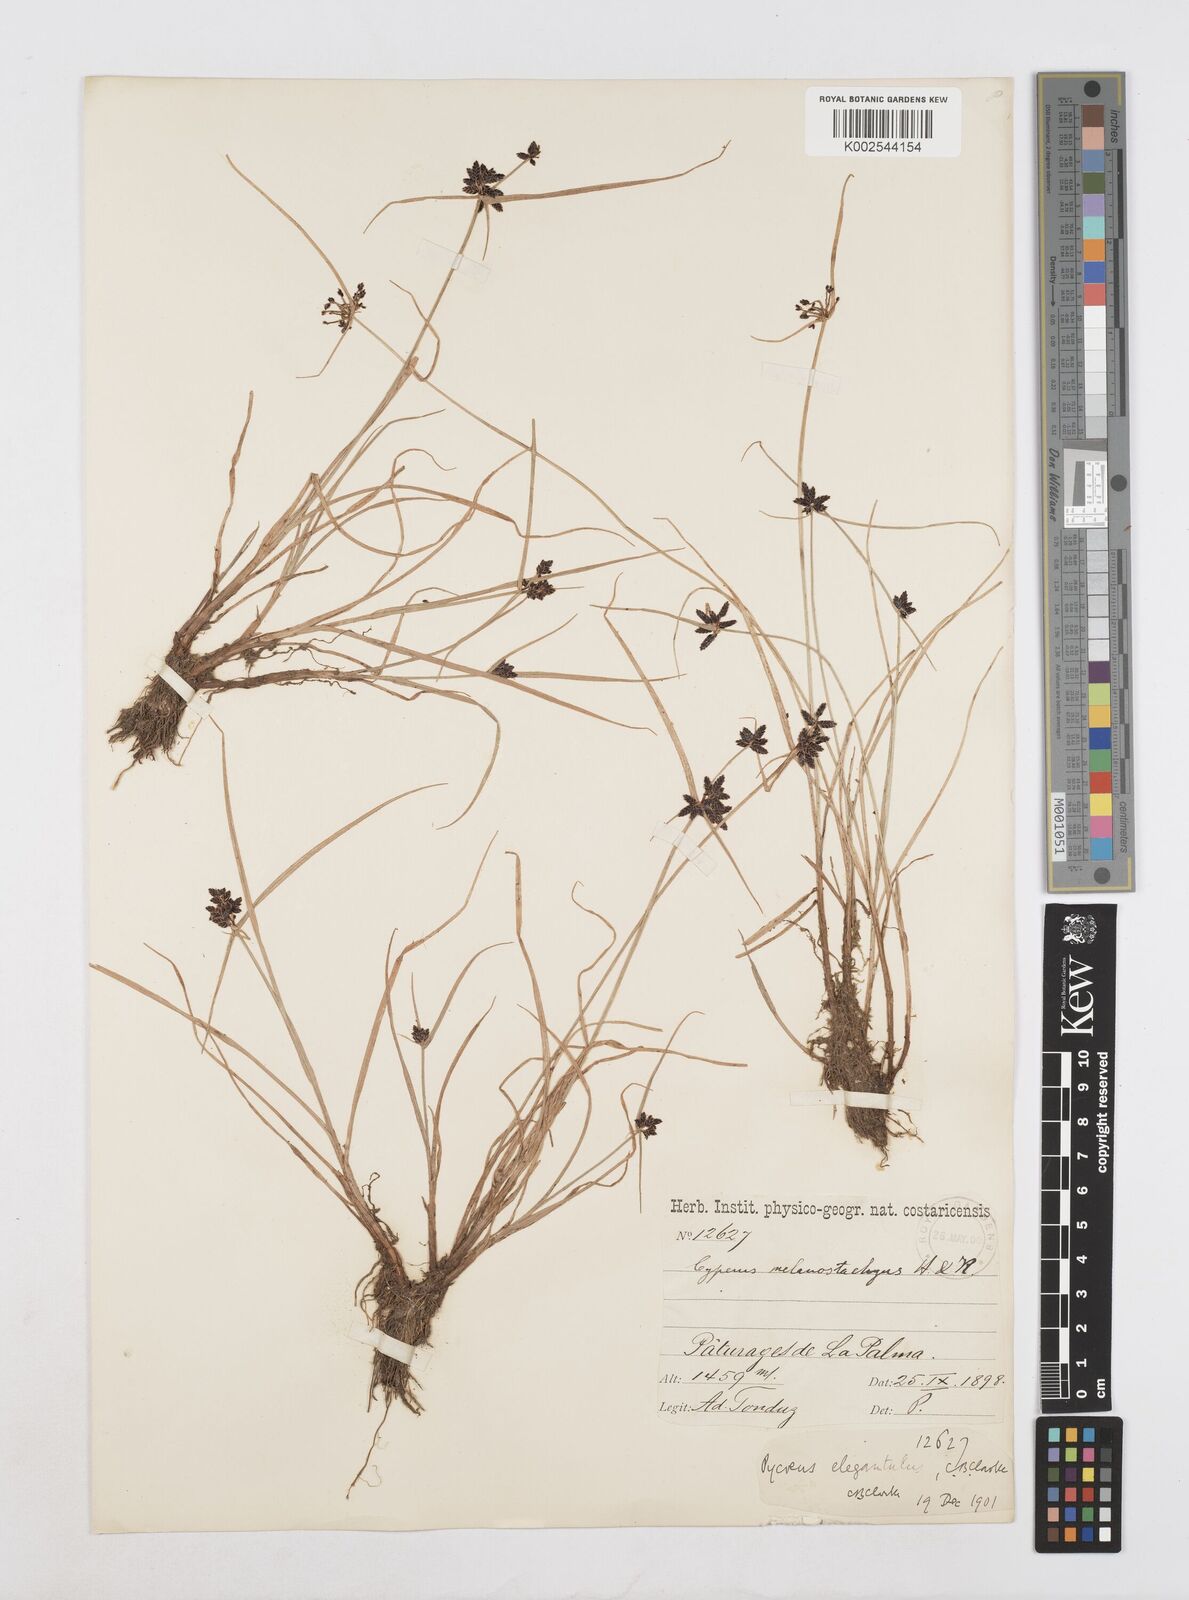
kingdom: Plantae
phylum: Tracheophyta
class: Liliopsida
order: Poales
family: Cyperaceae
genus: Cyperus
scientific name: Cyperus melanostachyus
